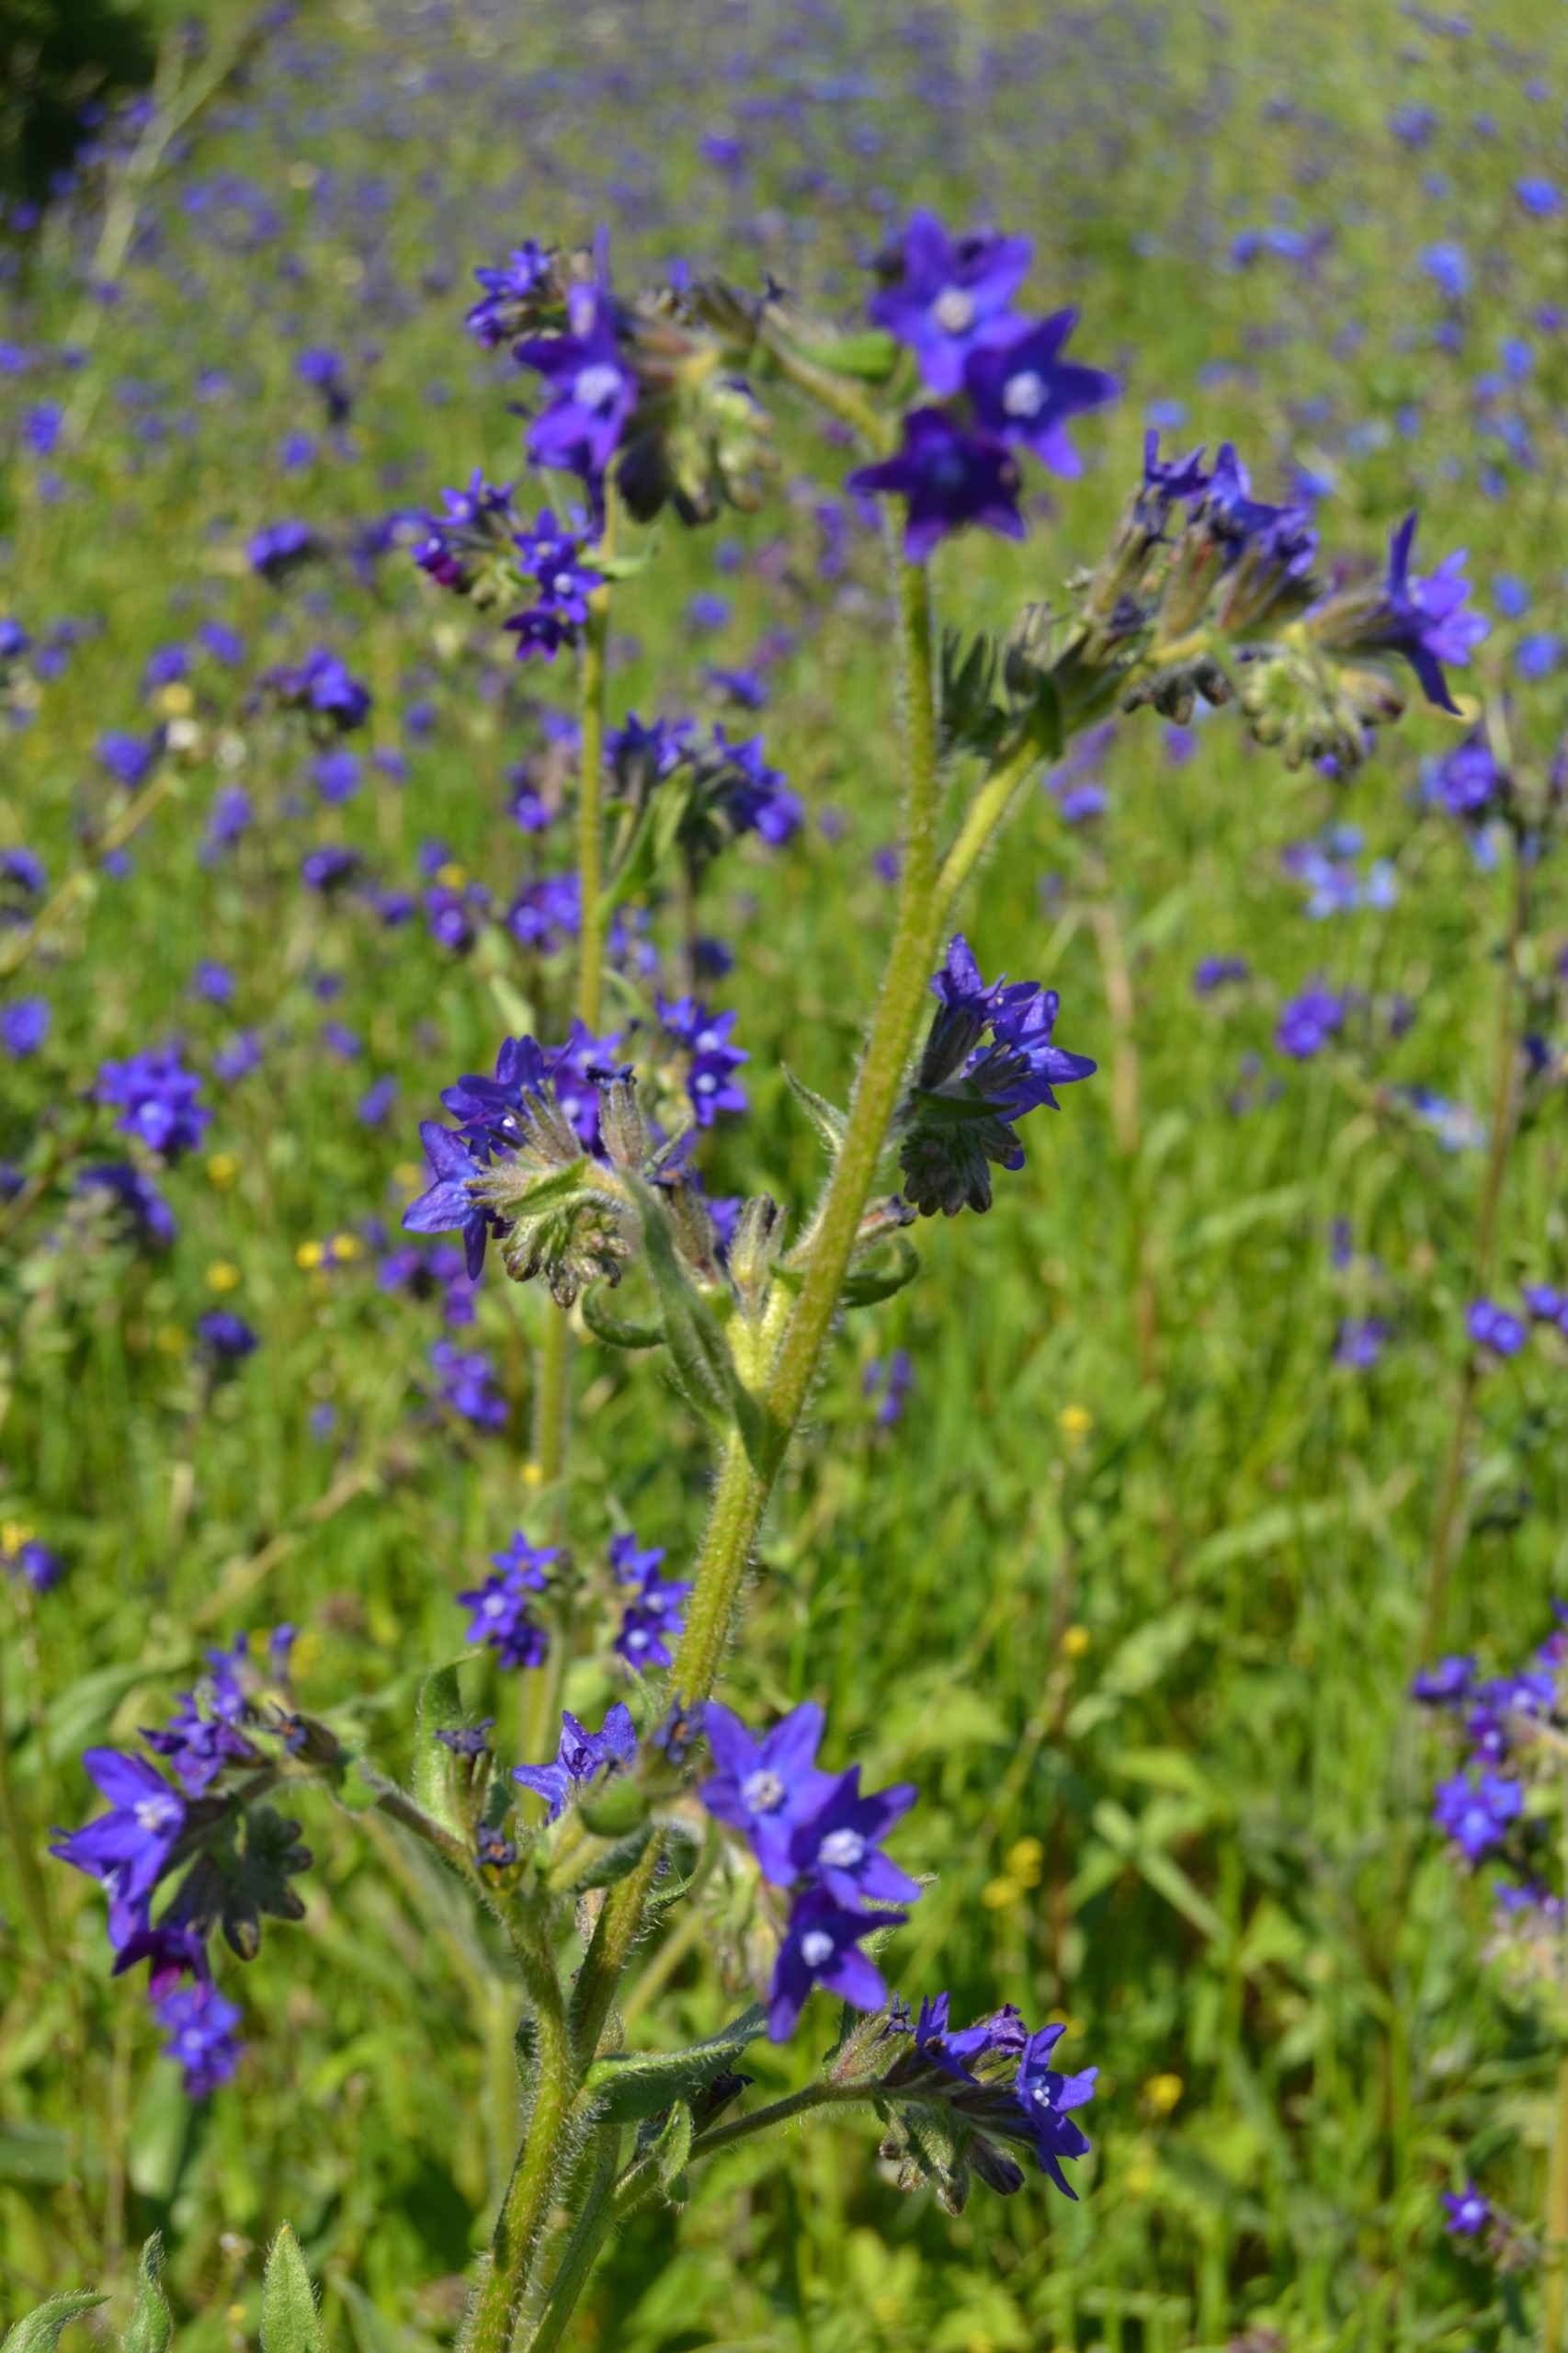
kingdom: Plantae
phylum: Tracheophyta
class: Magnoliopsida
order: Boraginales
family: Boraginaceae
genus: Anchusa
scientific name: Anchusa officinalis
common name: Læge-oksetunge
